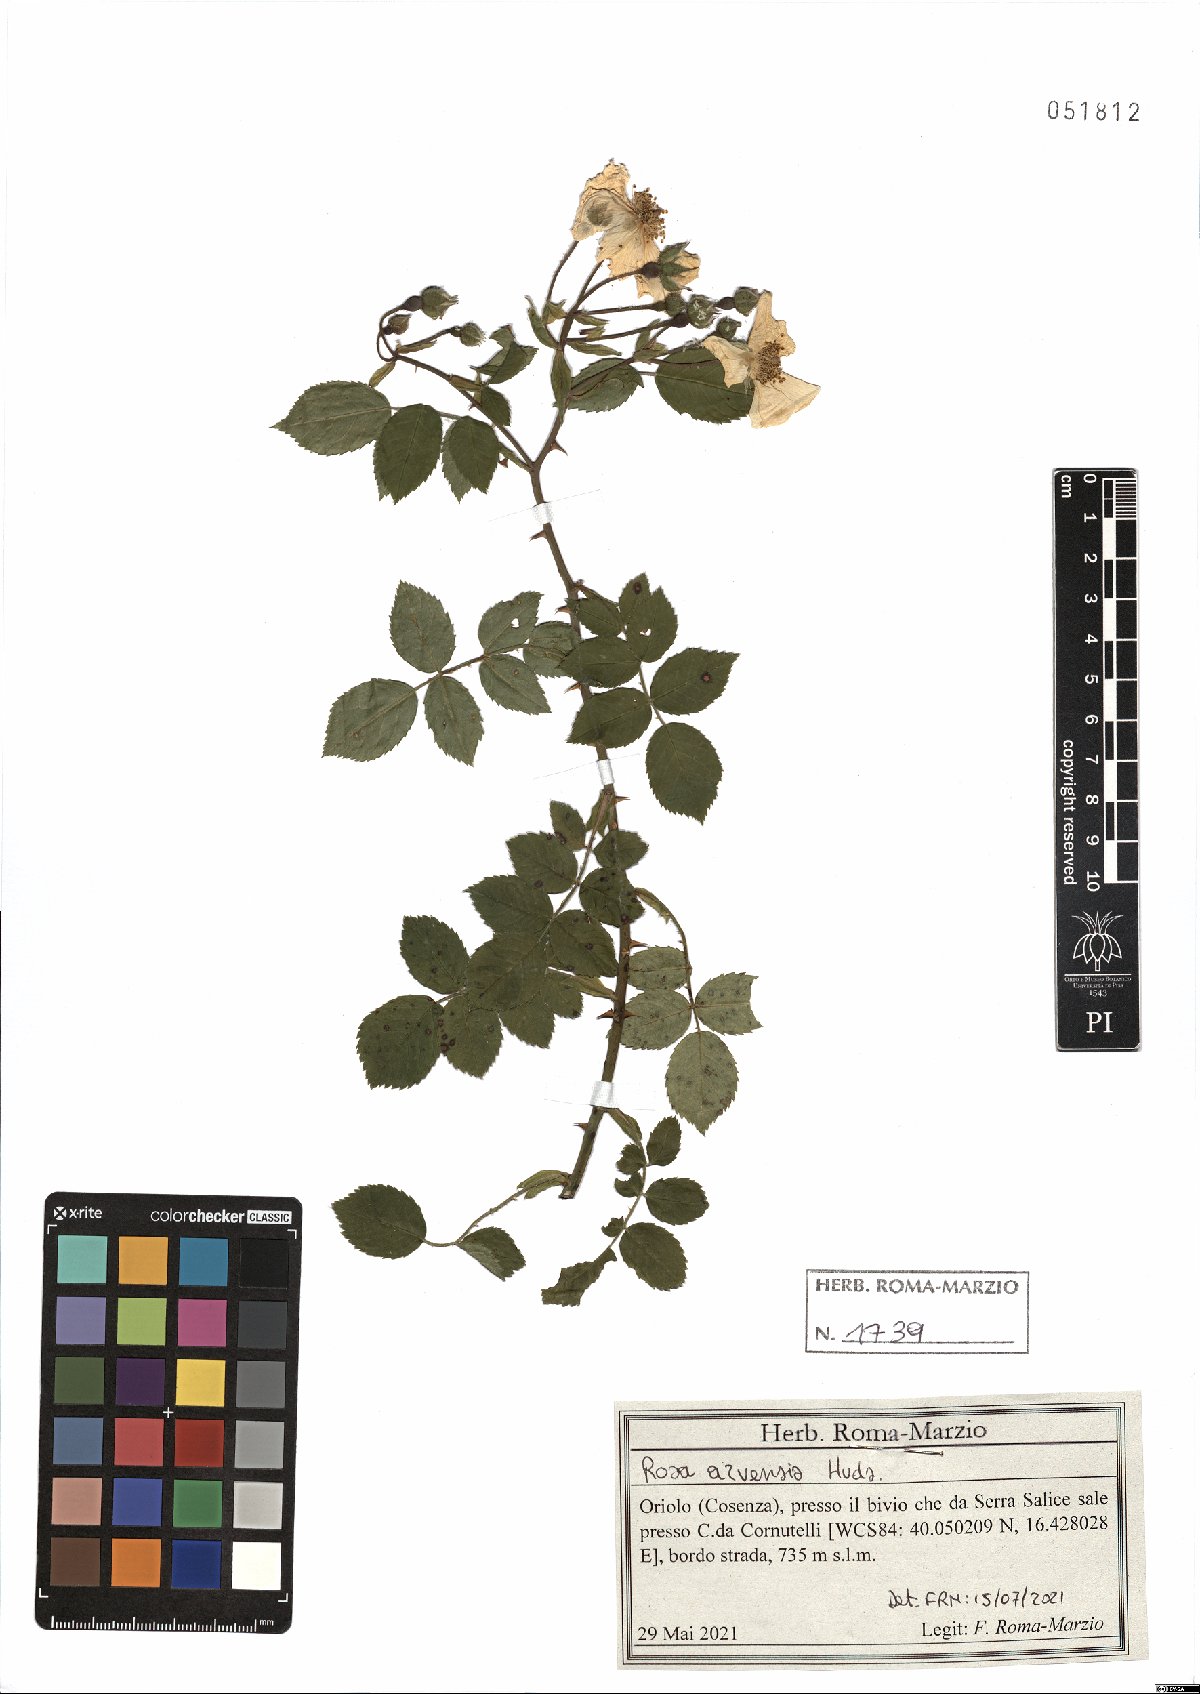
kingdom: Plantae
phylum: Tracheophyta
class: Magnoliopsida
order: Rosales
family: Rosaceae
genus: Rosa
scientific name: Rosa arvensis
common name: Field rose
